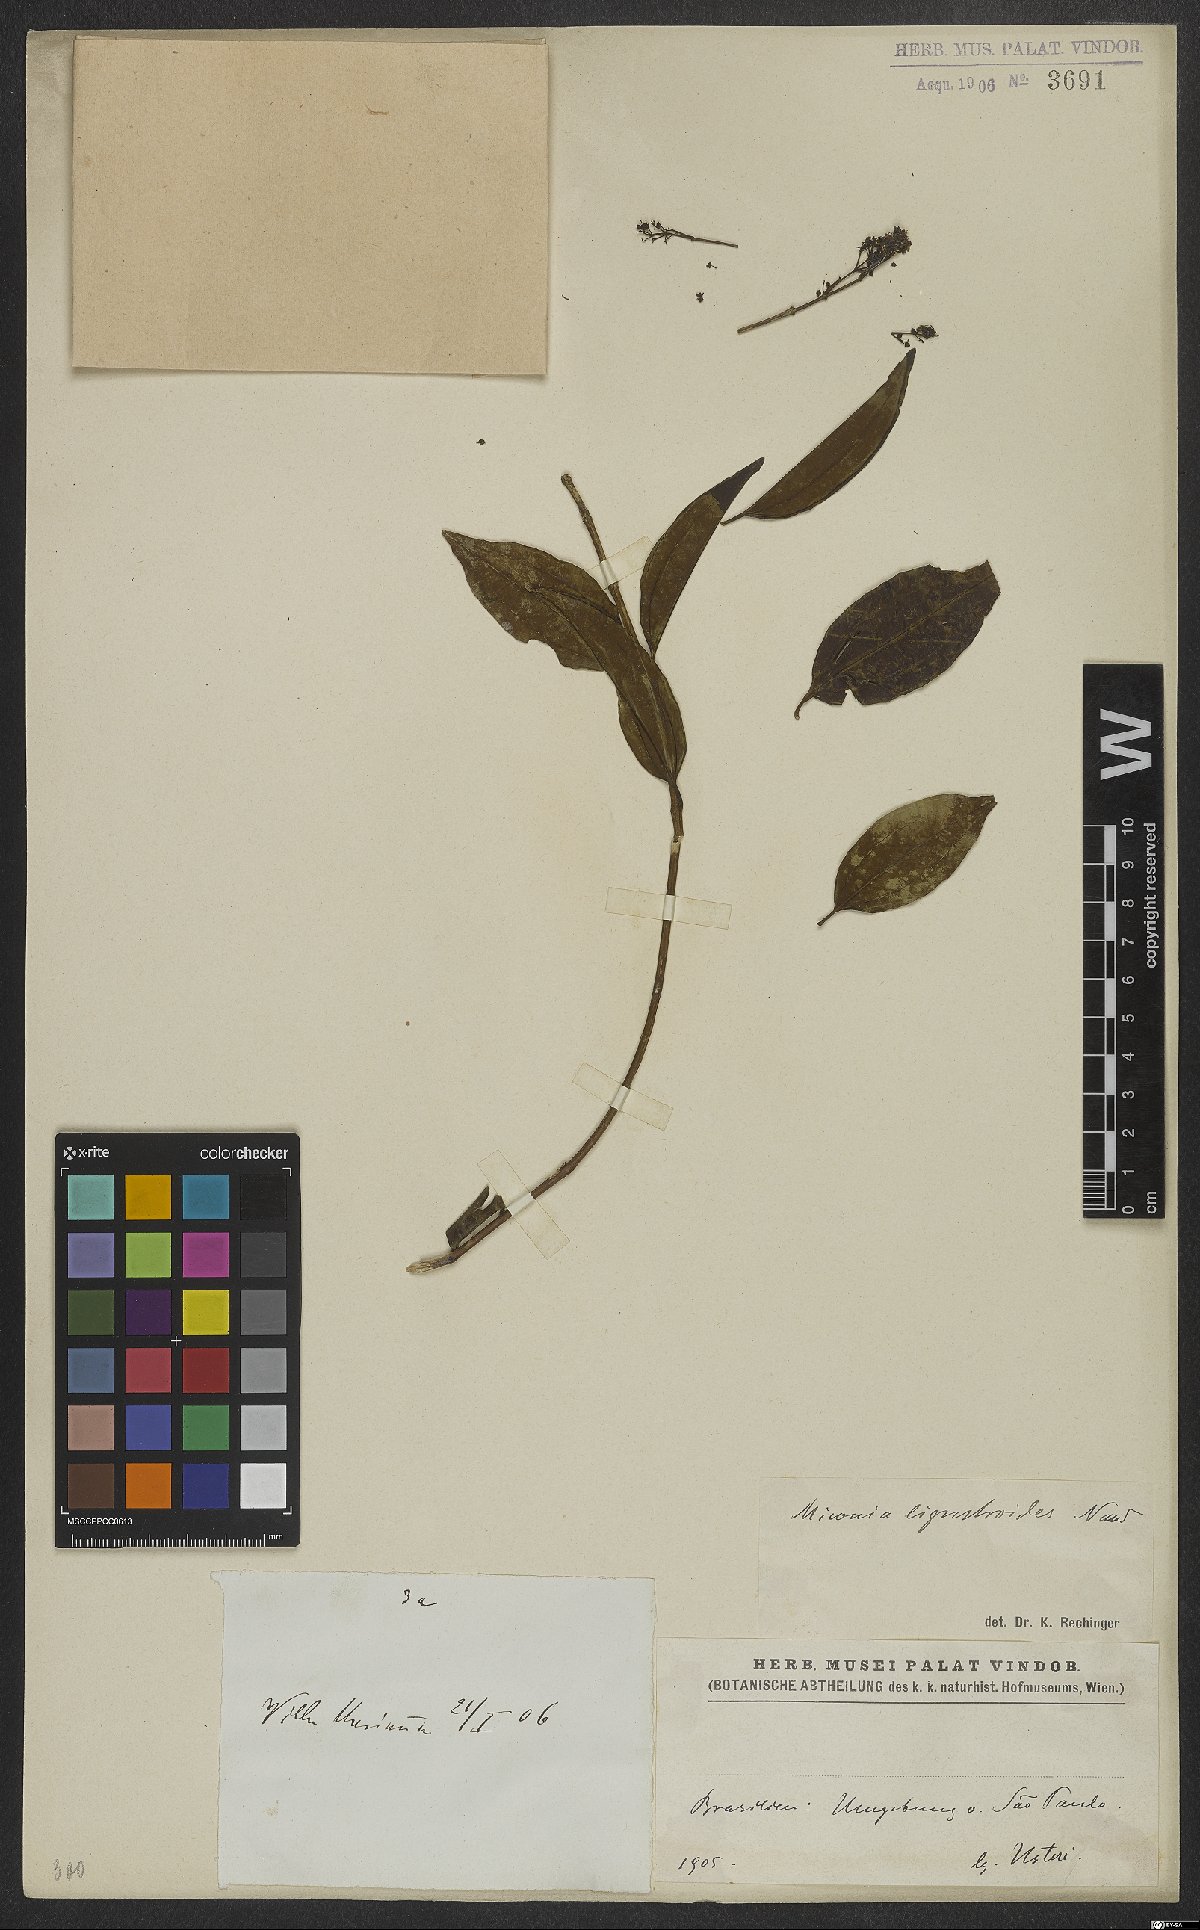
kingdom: Plantae
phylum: Tracheophyta
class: Magnoliopsida
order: Myrtales
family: Melastomataceae
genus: Miconia
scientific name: Miconia ligustroides
